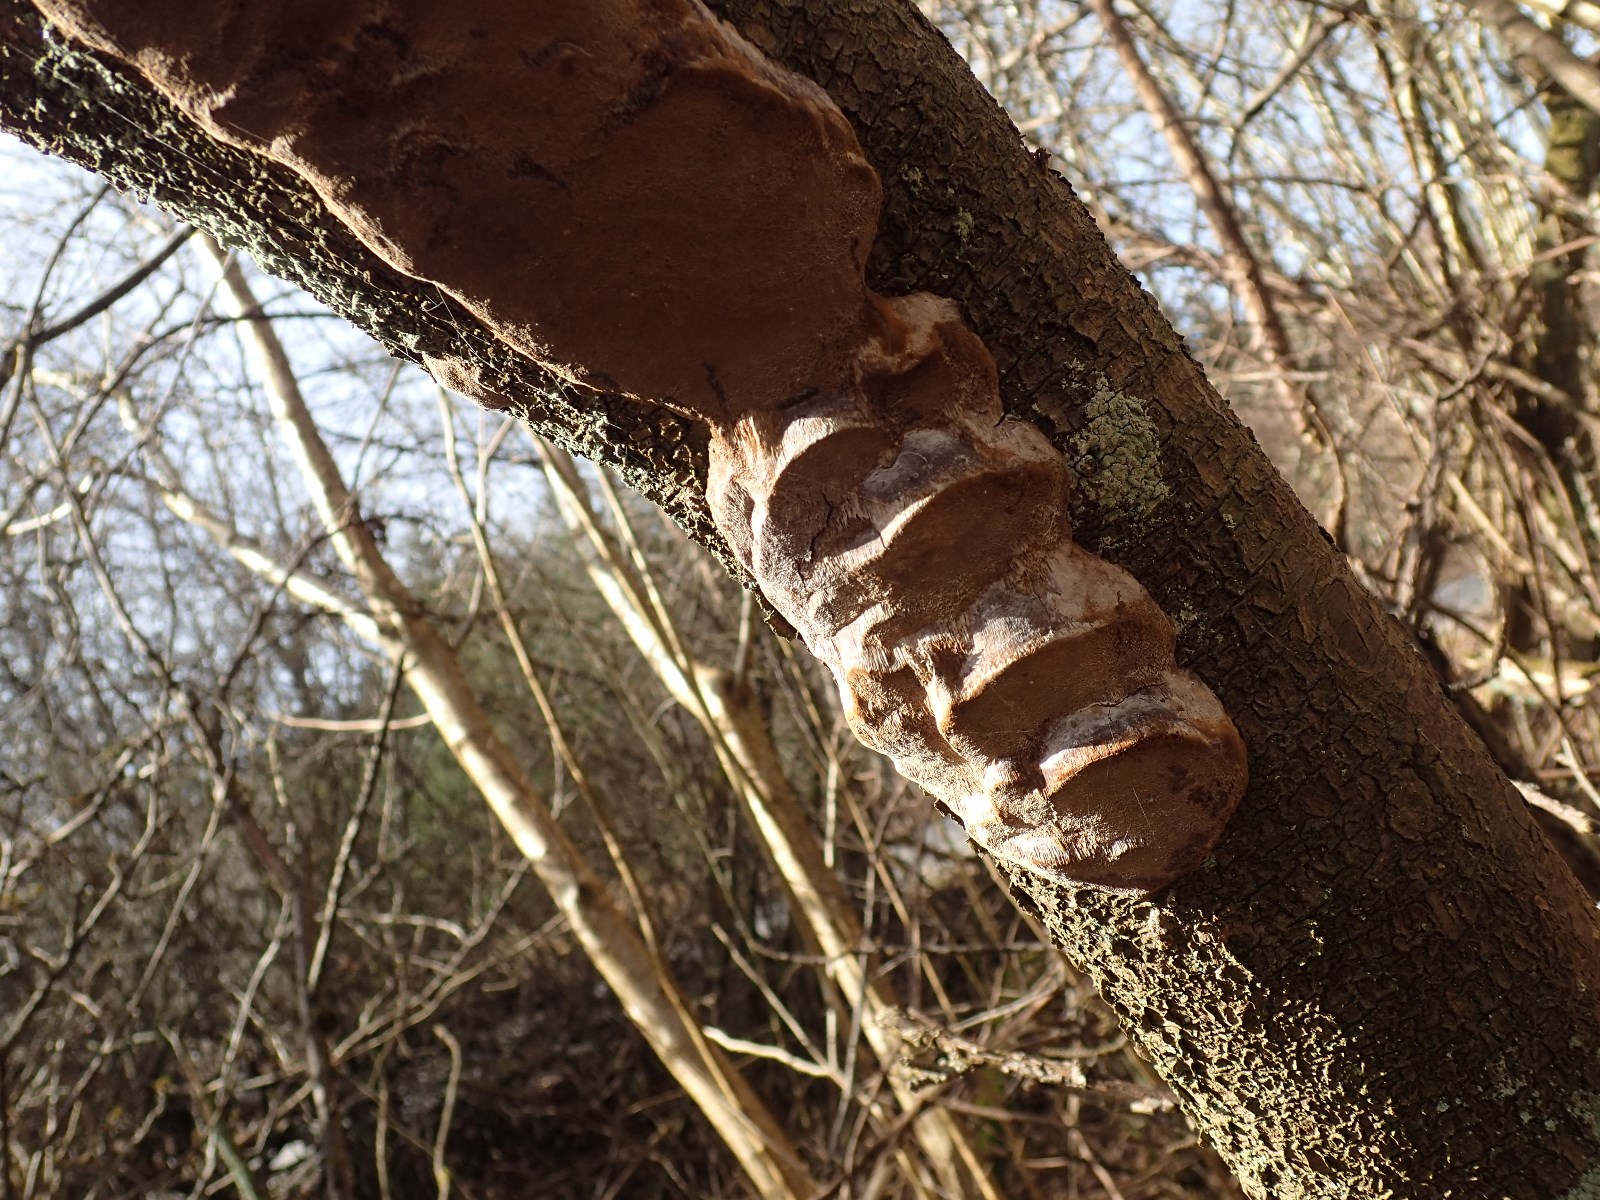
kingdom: Fungi
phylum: Basidiomycota
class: Agaricomycetes
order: Hymenochaetales
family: Hymenochaetaceae
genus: Phellinus
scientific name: Phellinus pomaceus
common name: blomme-ildporesvamp
